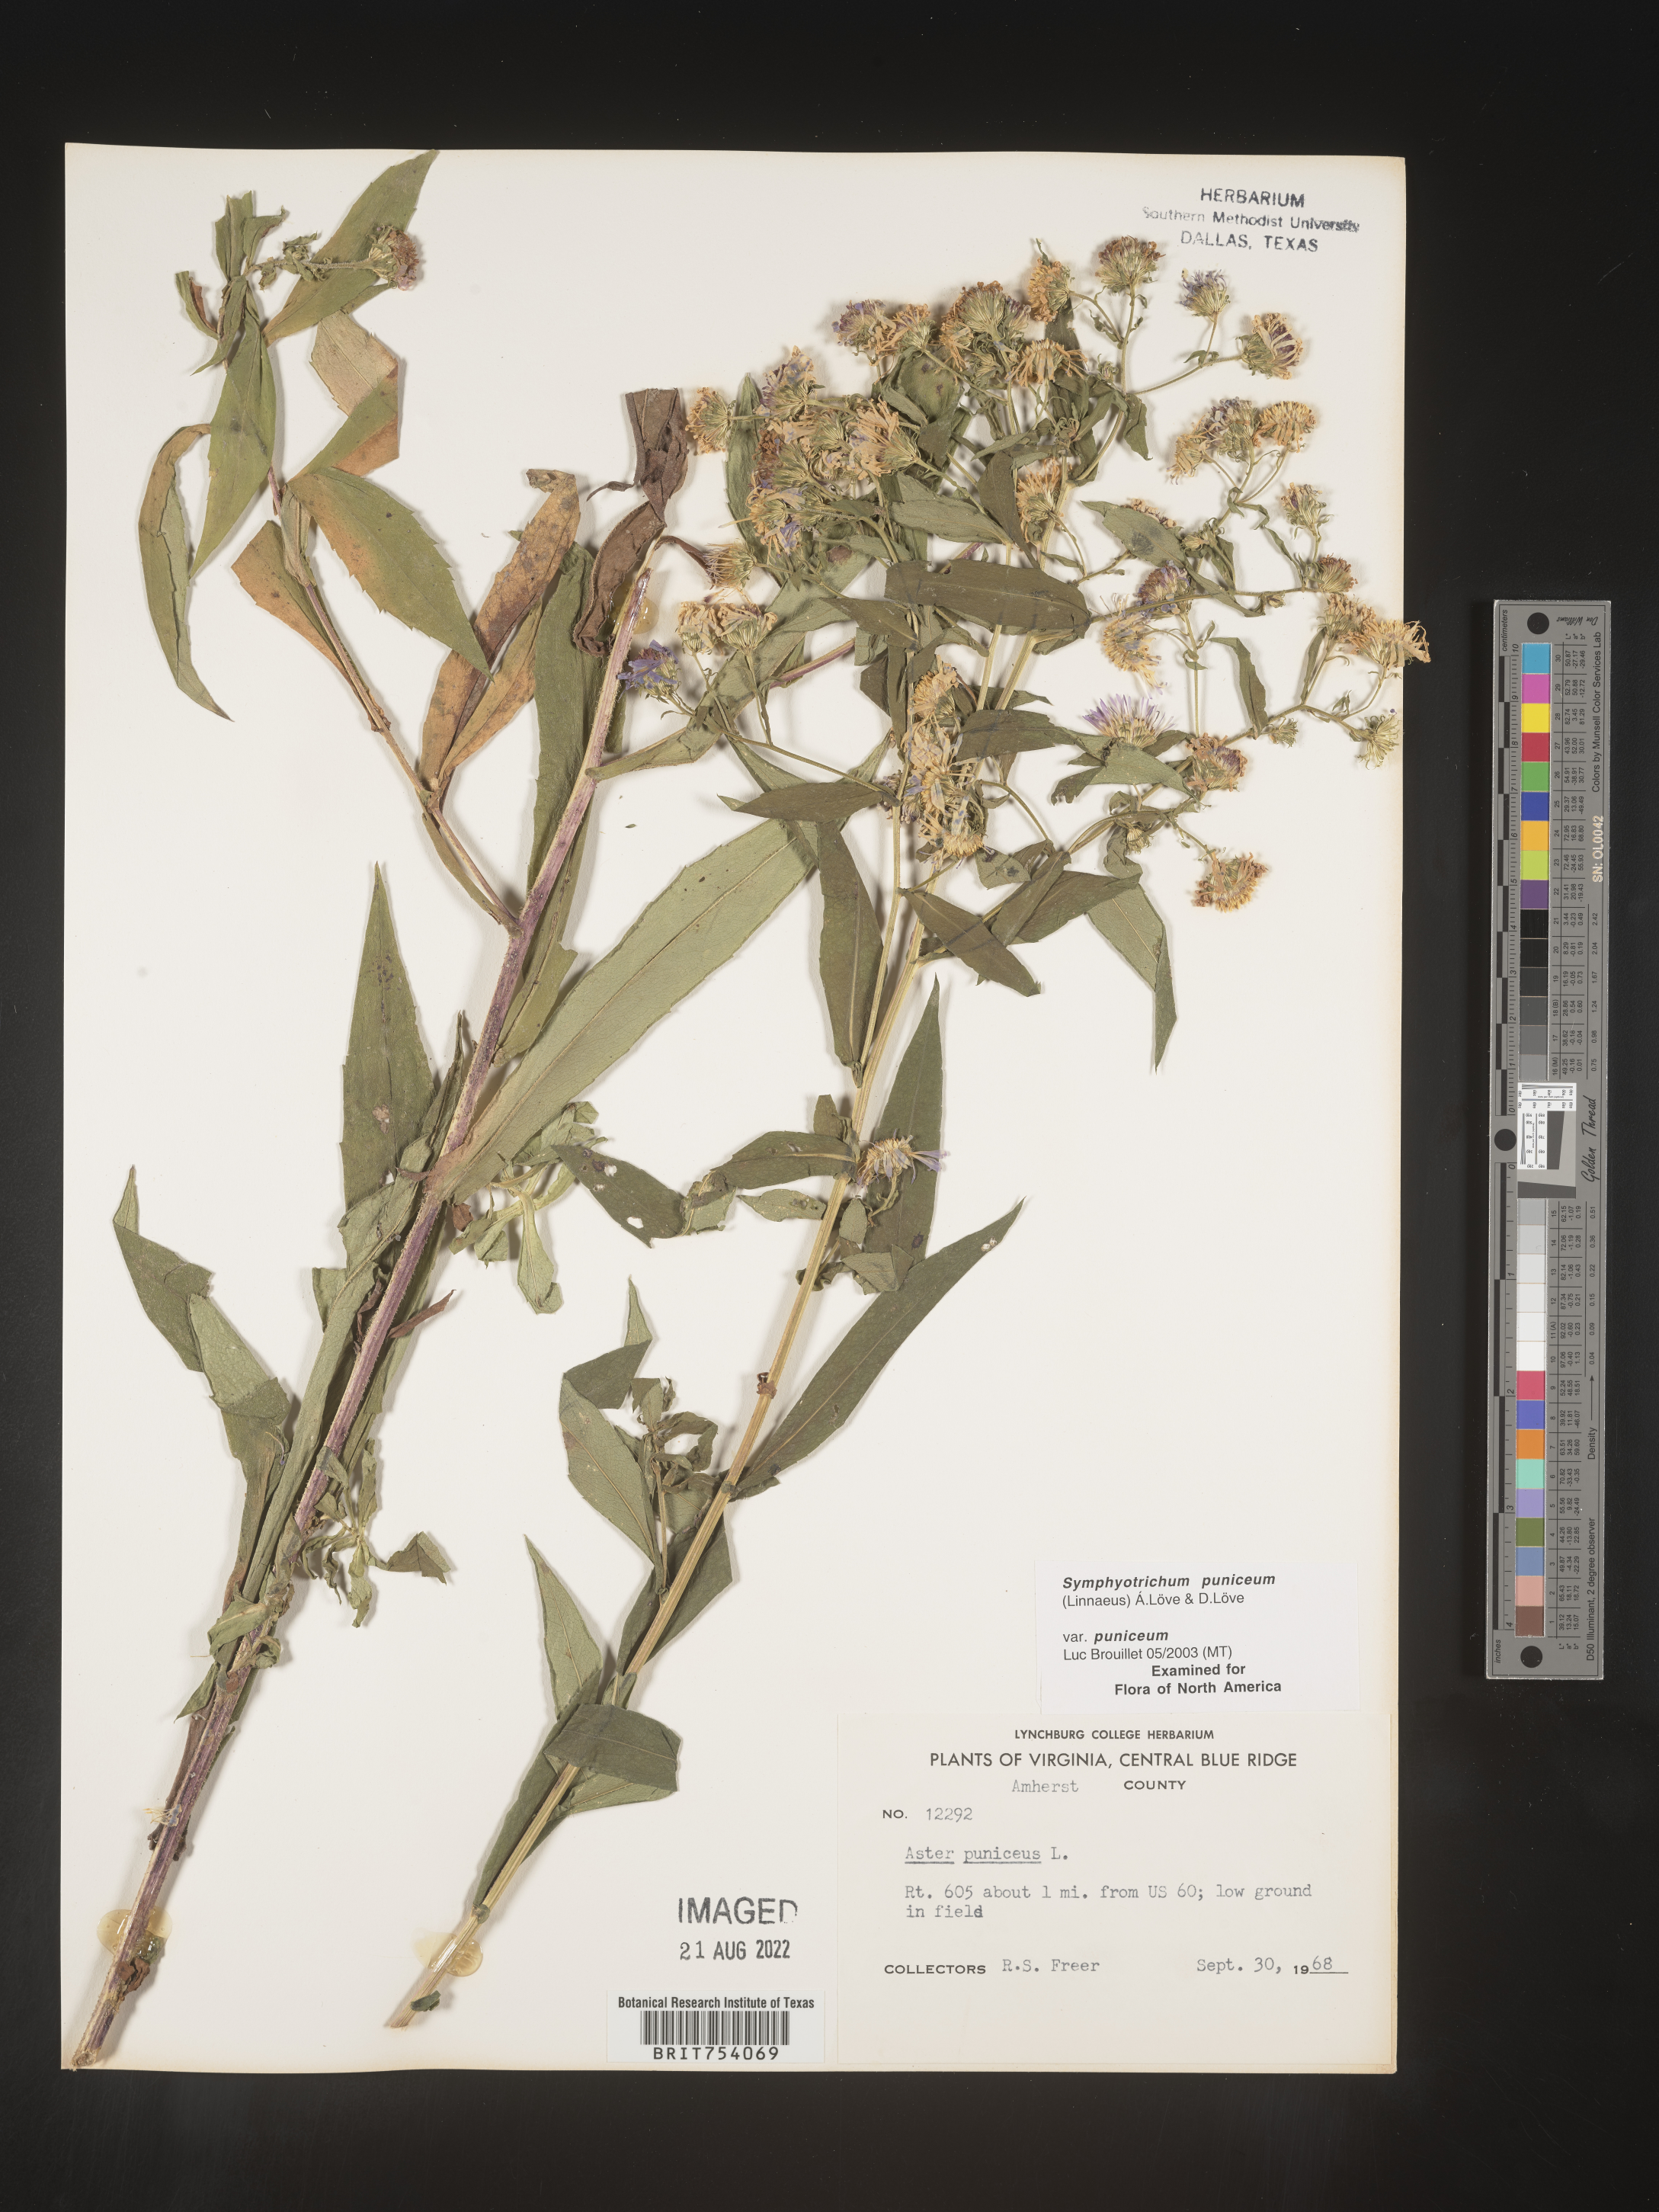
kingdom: Plantae
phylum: Tracheophyta
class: Magnoliopsida
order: Asterales
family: Asteraceae
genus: Symphyotrichum
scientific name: Symphyotrichum puniceum
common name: Bog aster
